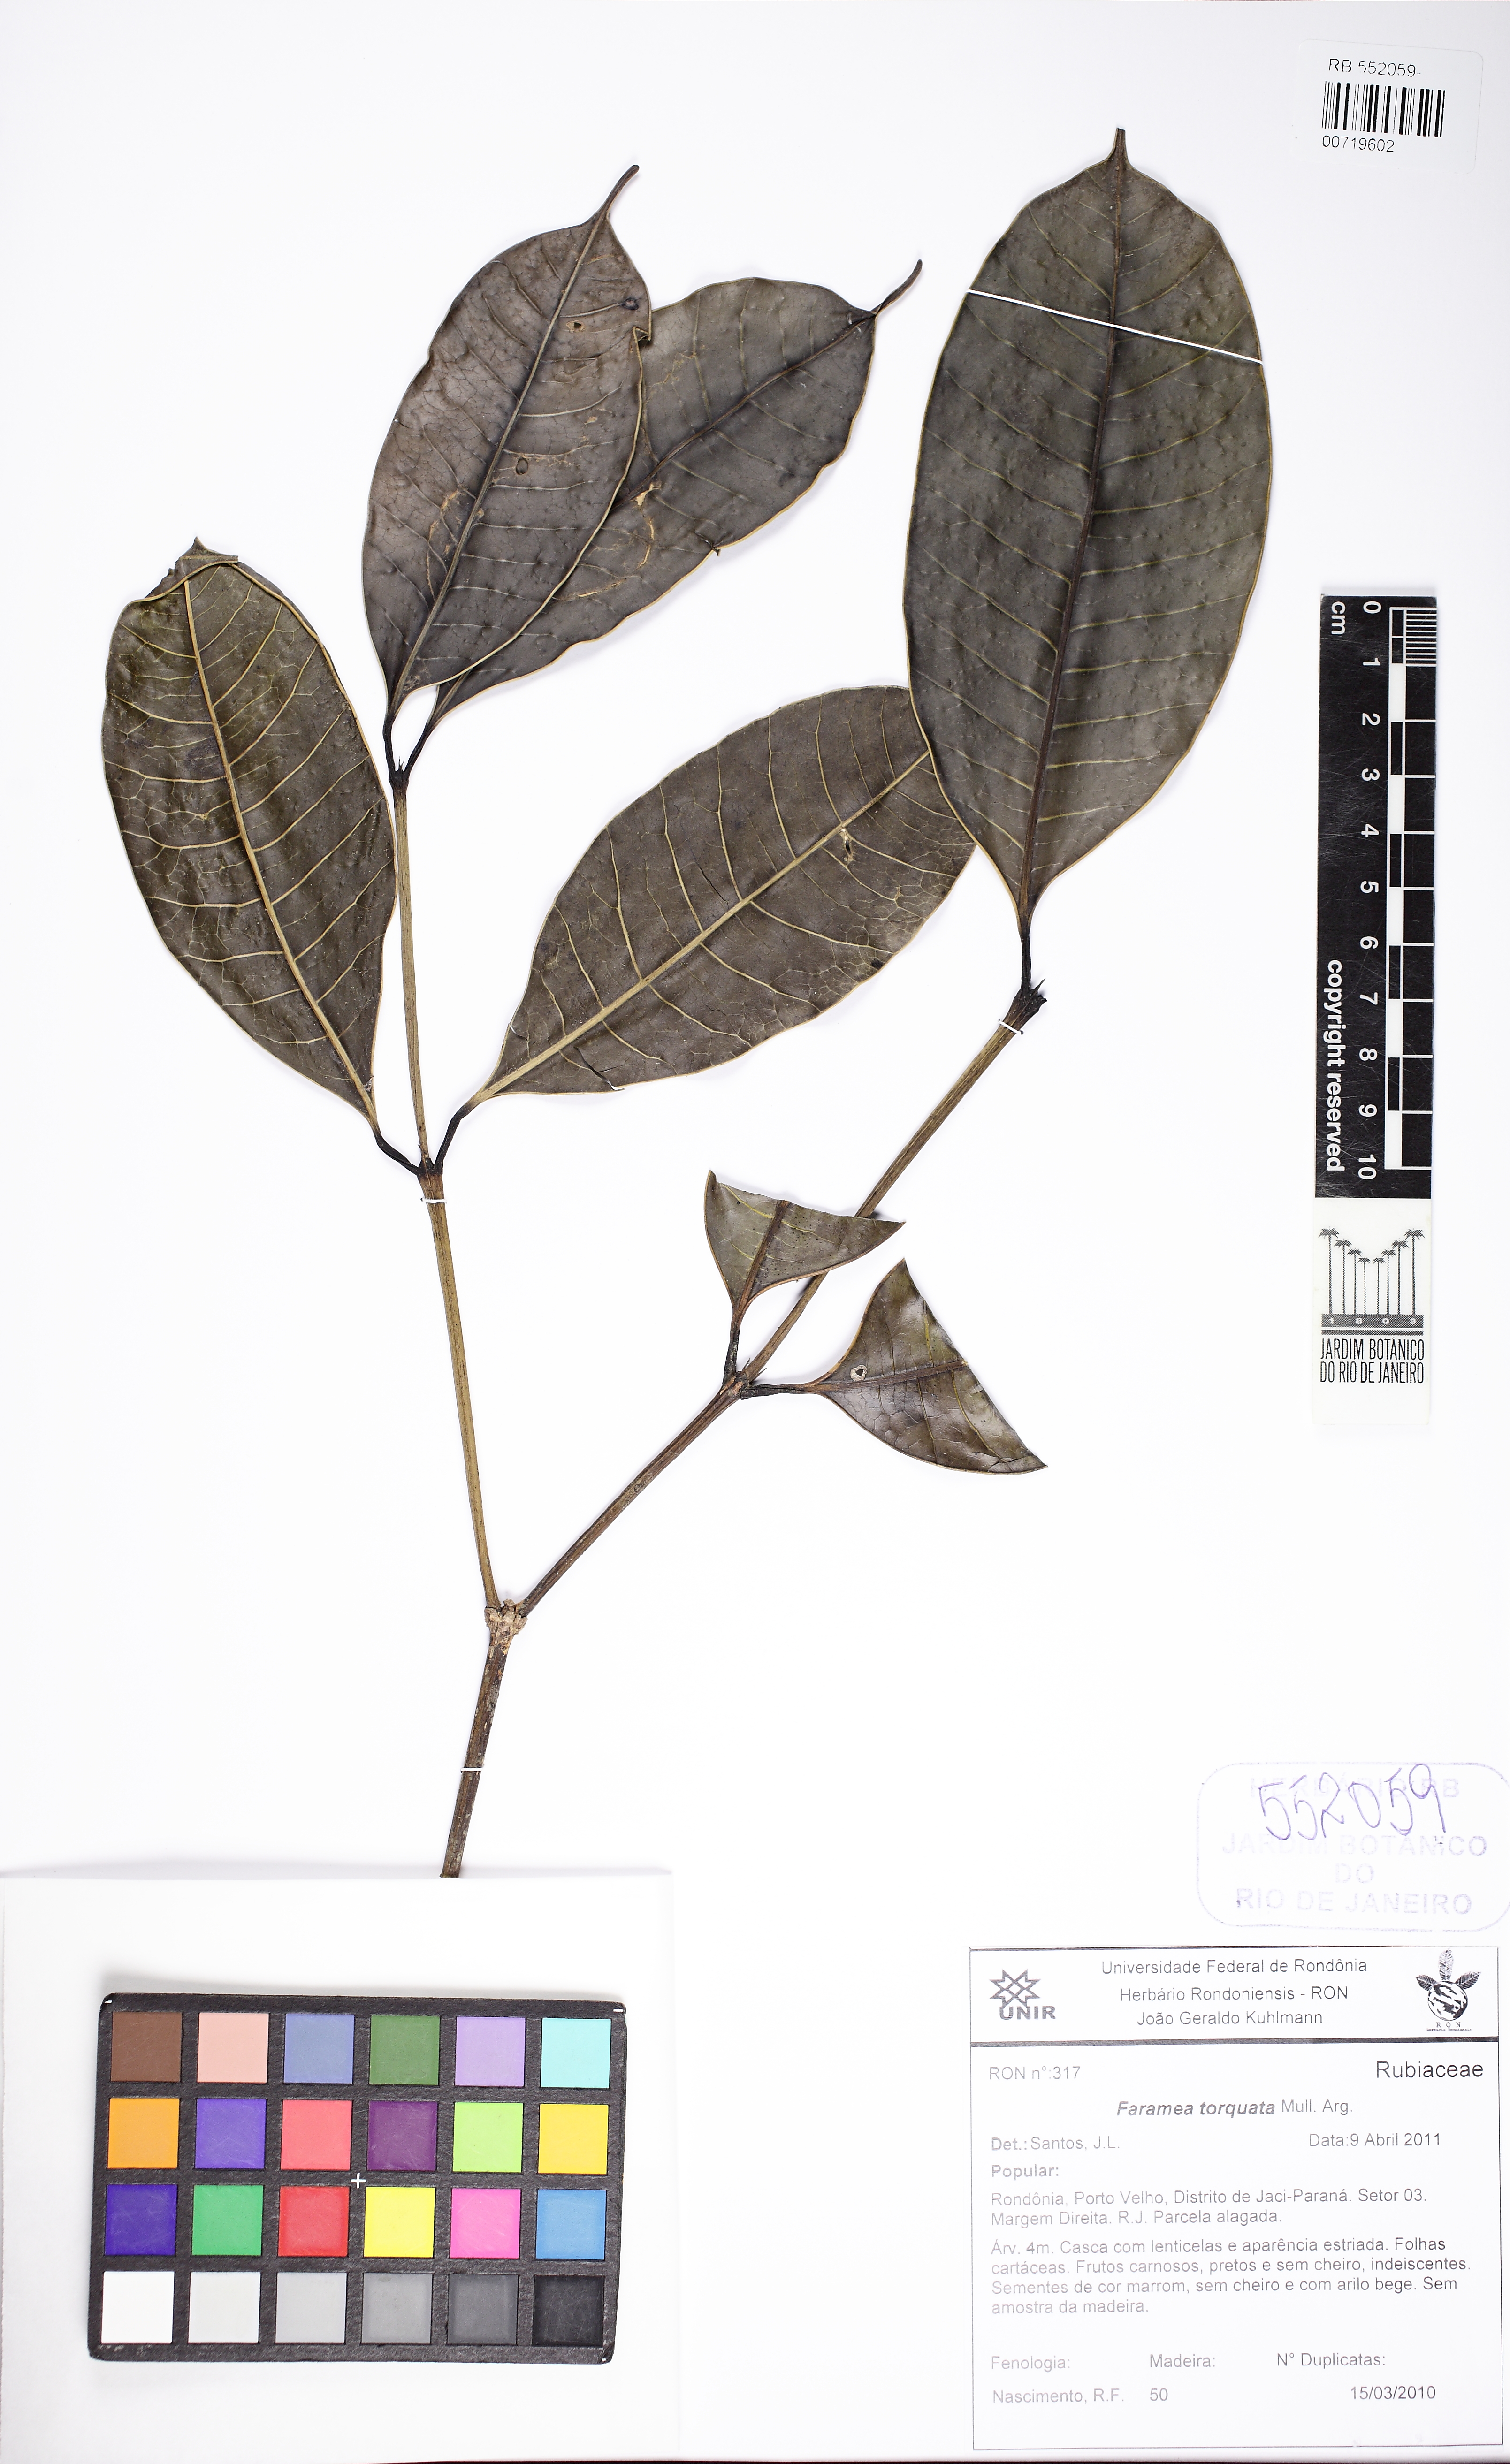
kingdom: Plantae
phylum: Tracheophyta
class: Magnoliopsida
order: Gentianales
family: Rubiaceae
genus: Faramea
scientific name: Faramea torquata
